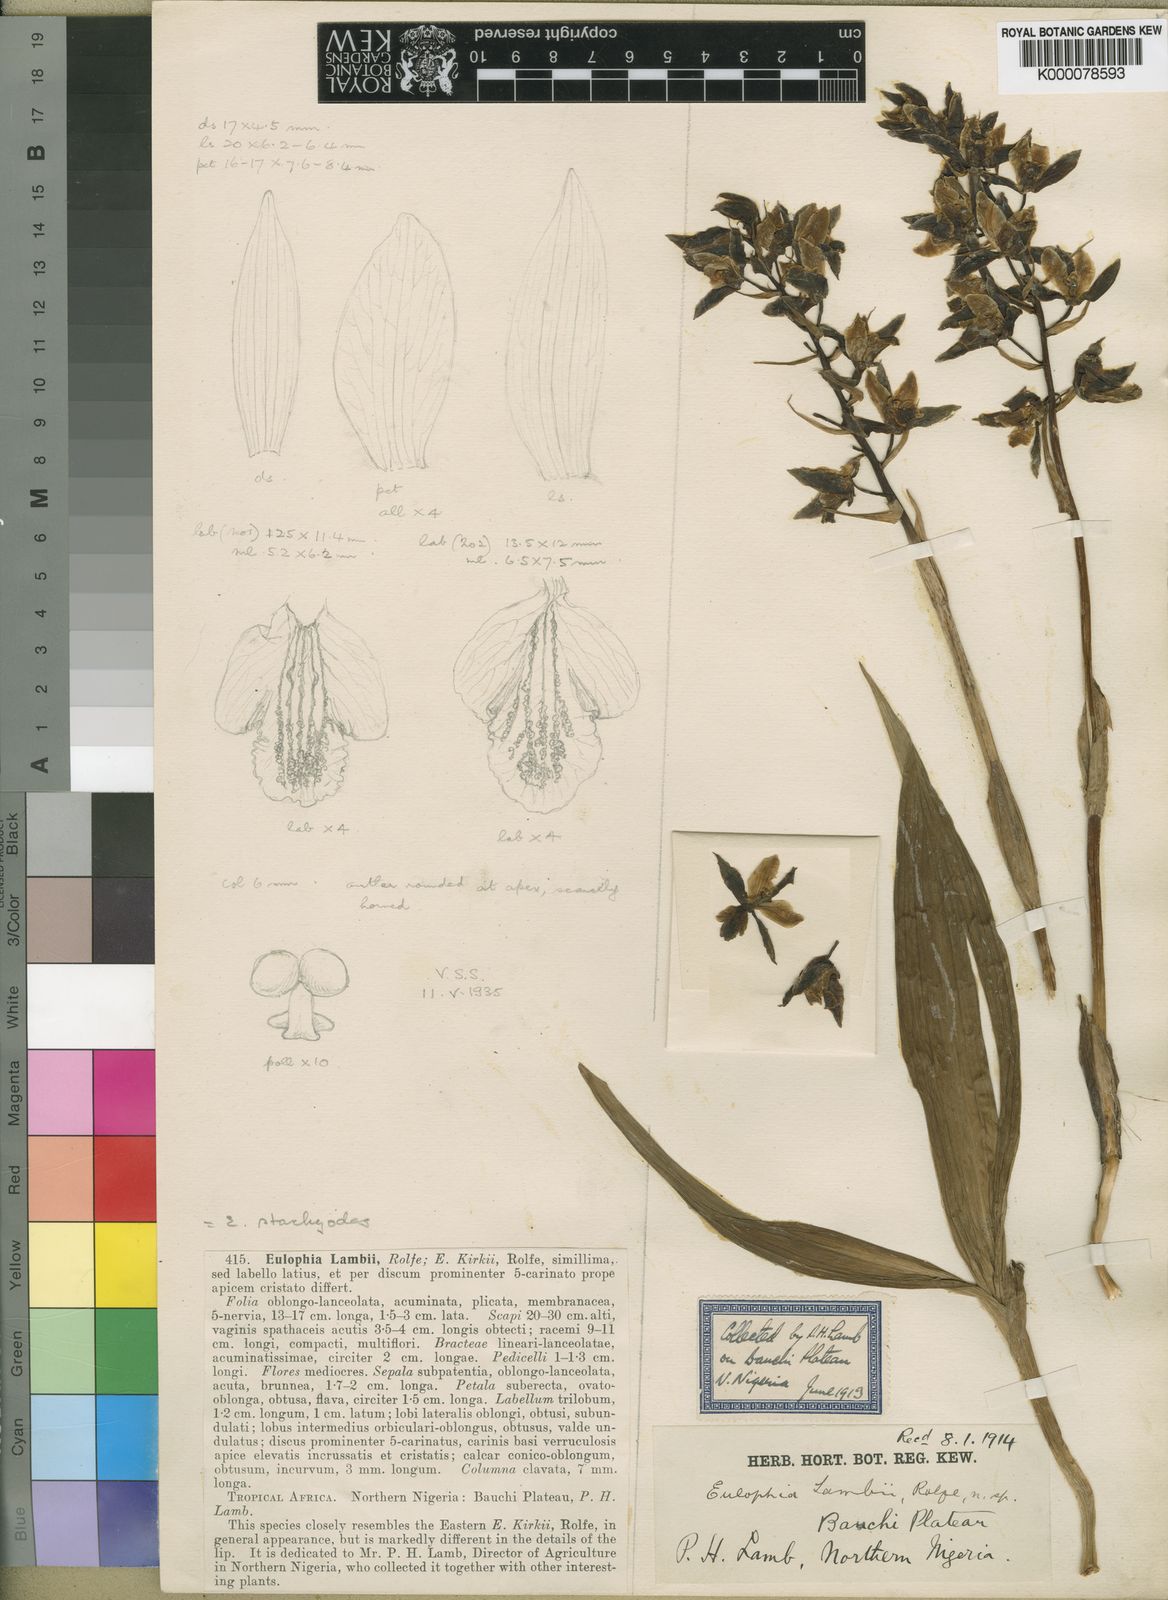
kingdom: Plantae
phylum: Tracheophyta
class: Liliopsida
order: Asparagales
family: Orchidaceae
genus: Eulophia
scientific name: Eulophia stachyodes
